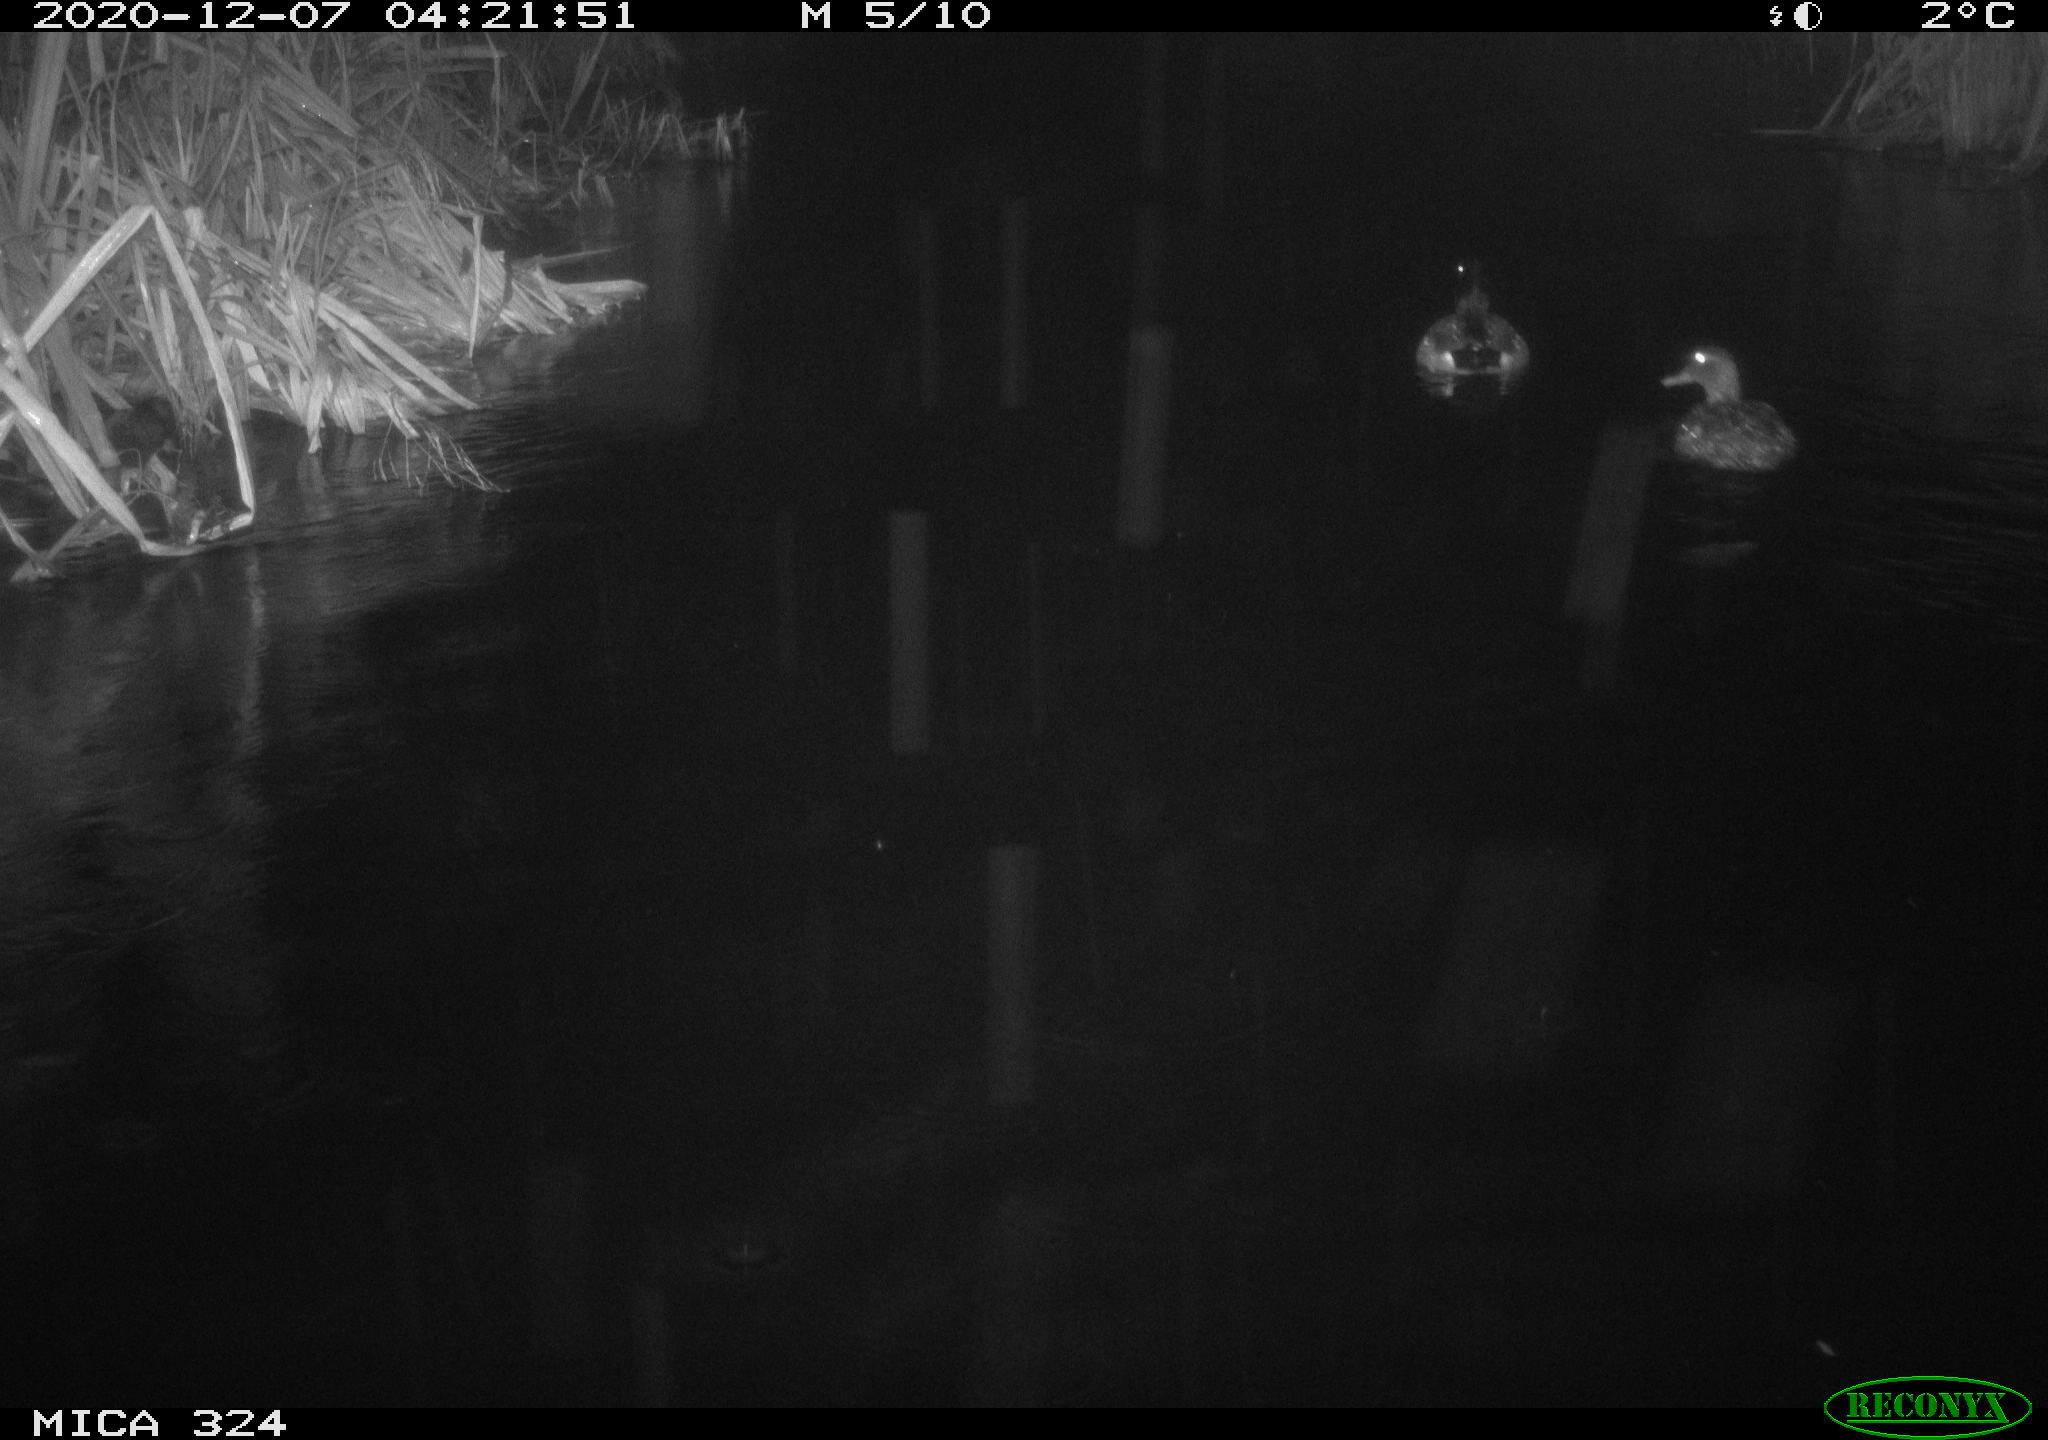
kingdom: Animalia
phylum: Chordata
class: Aves
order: Anseriformes
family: Anatidae
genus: Anas
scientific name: Anas platyrhynchos
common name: Mallard
